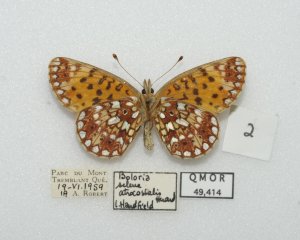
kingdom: Animalia
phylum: Arthropoda
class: Insecta
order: Lepidoptera
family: Nymphalidae
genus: Boloria
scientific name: Boloria selene
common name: Silver-bordered Fritillary
